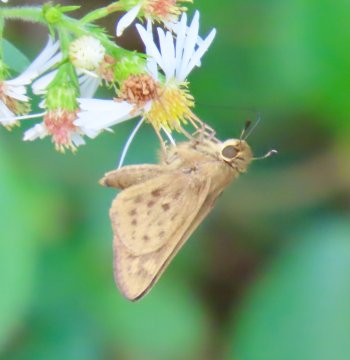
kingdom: Animalia
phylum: Arthropoda
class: Insecta
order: Lepidoptera
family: Hesperiidae
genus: Hylephila
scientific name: Hylephila phyleus
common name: Fiery Skipper
